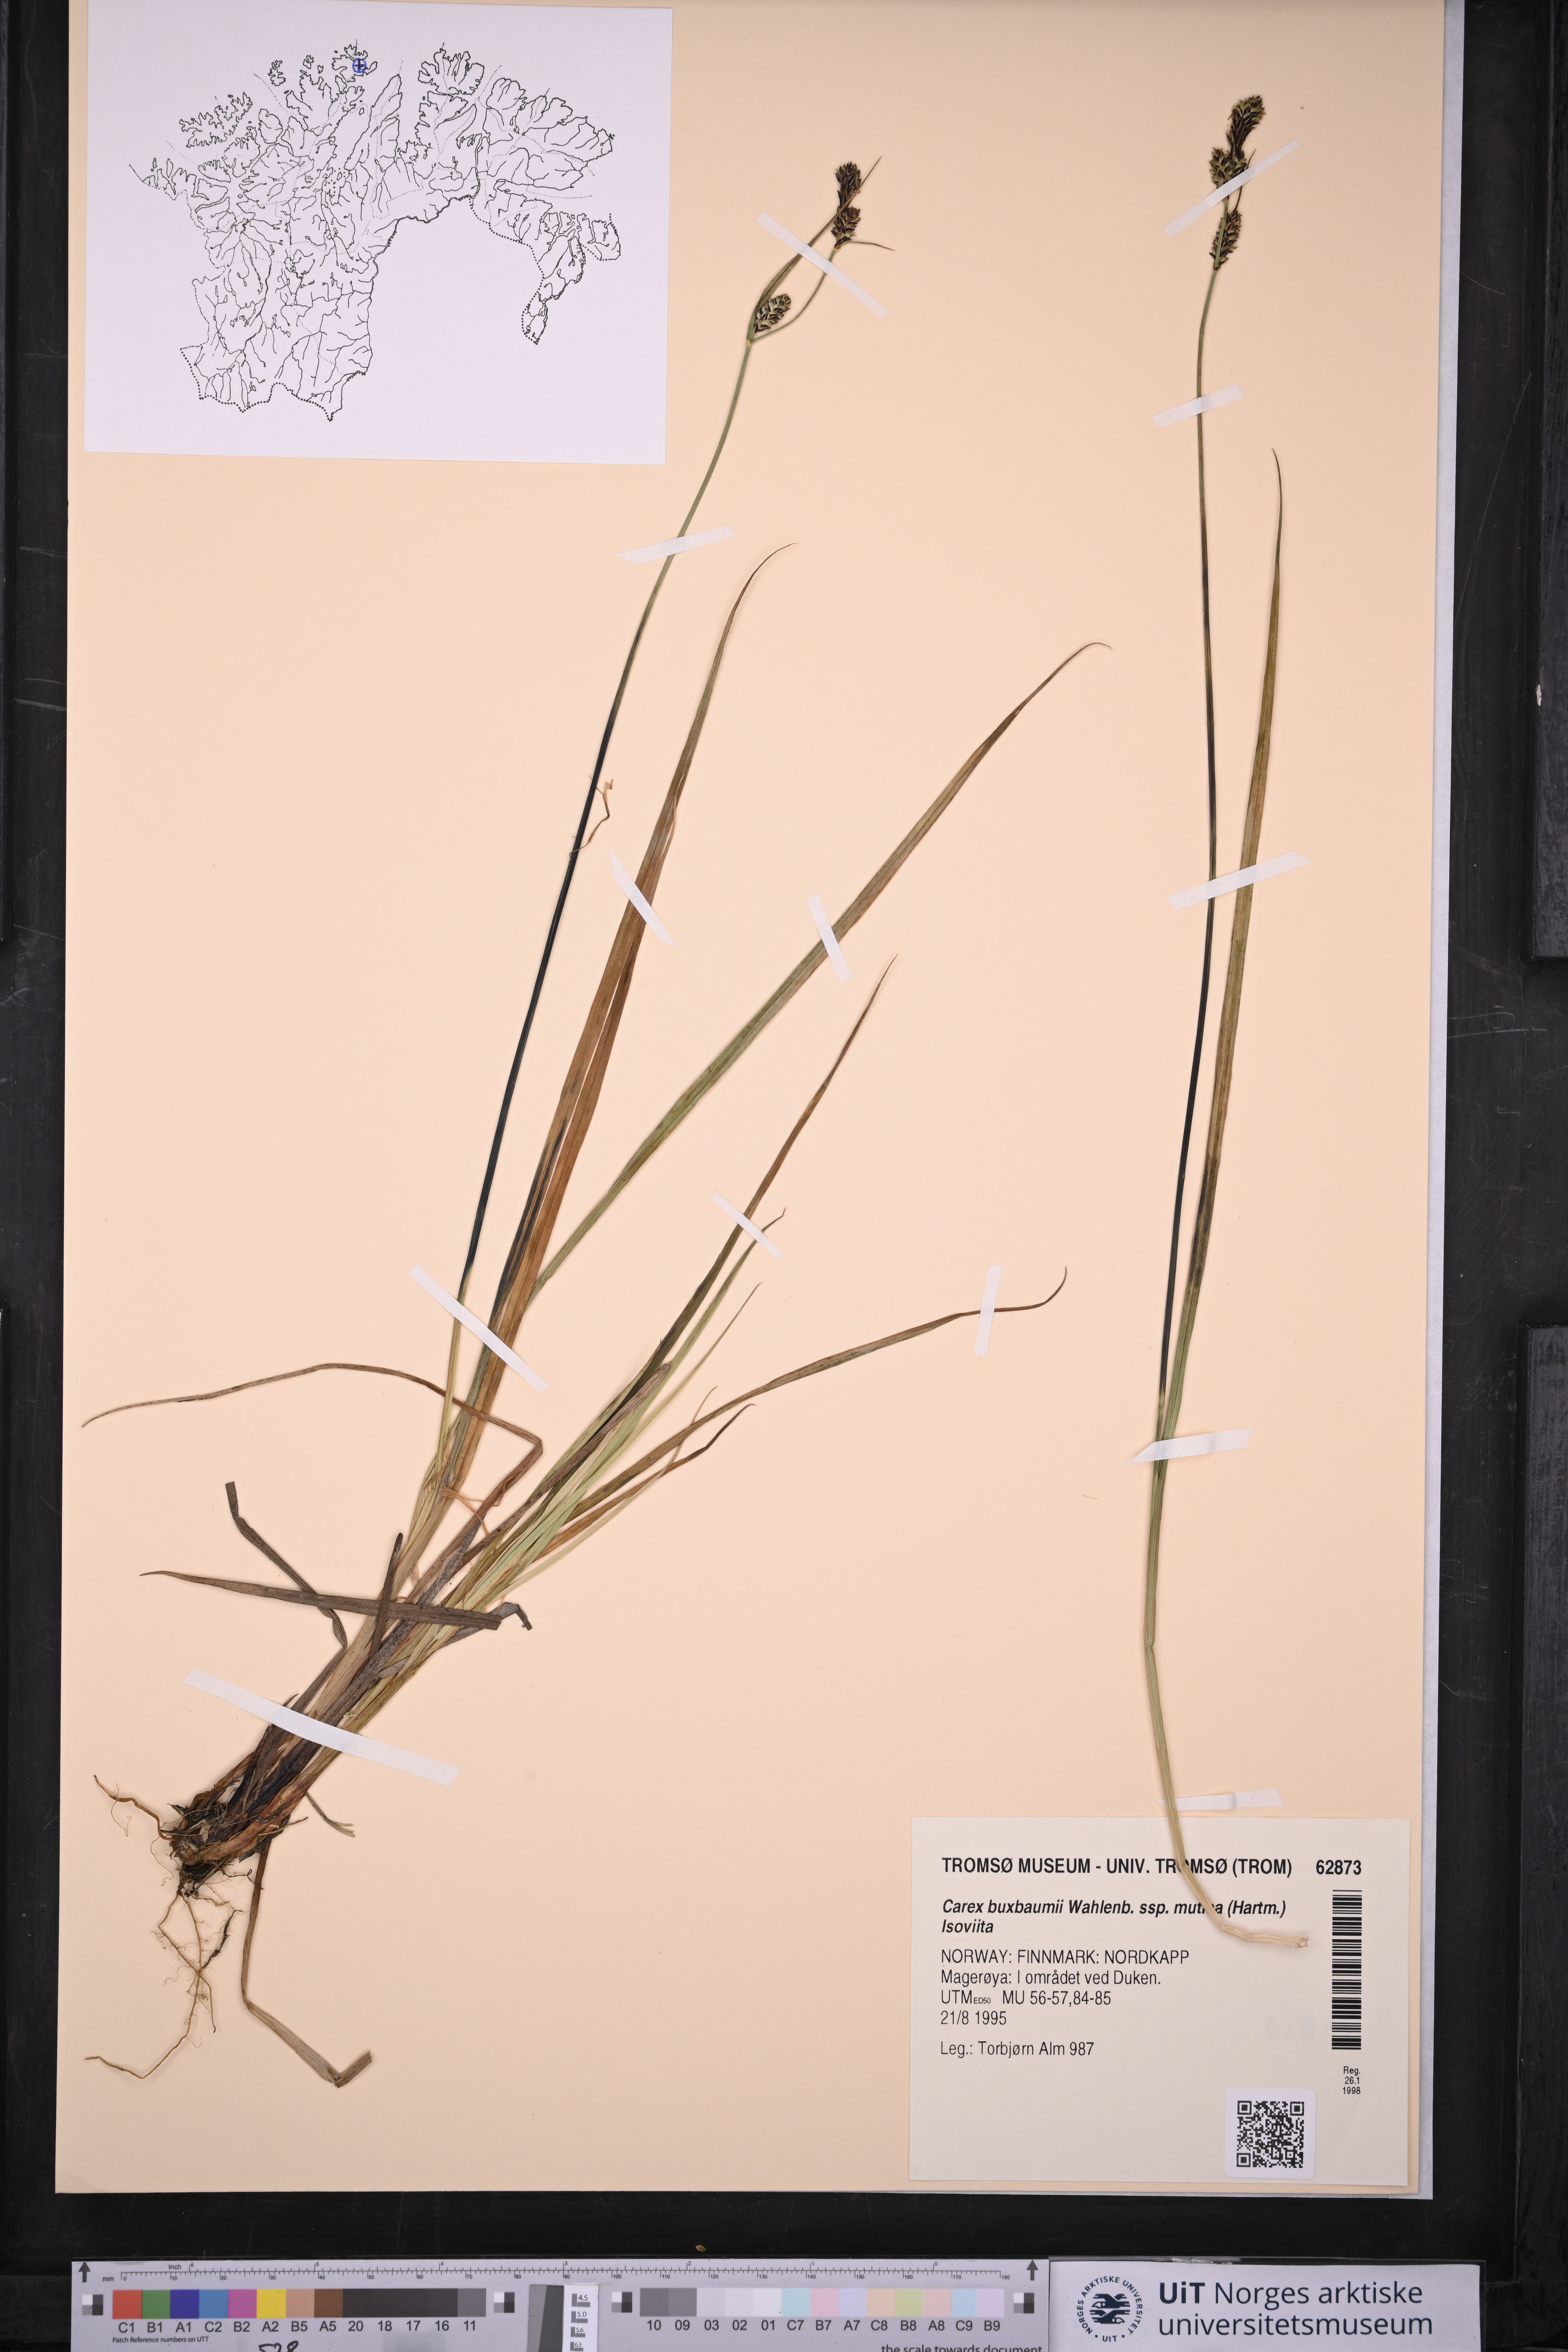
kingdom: Plantae
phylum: Tracheophyta
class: Liliopsida
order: Poales
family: Cyperaceae
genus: Carex
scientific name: Carex adelostoma
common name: Circumpolar sedge
